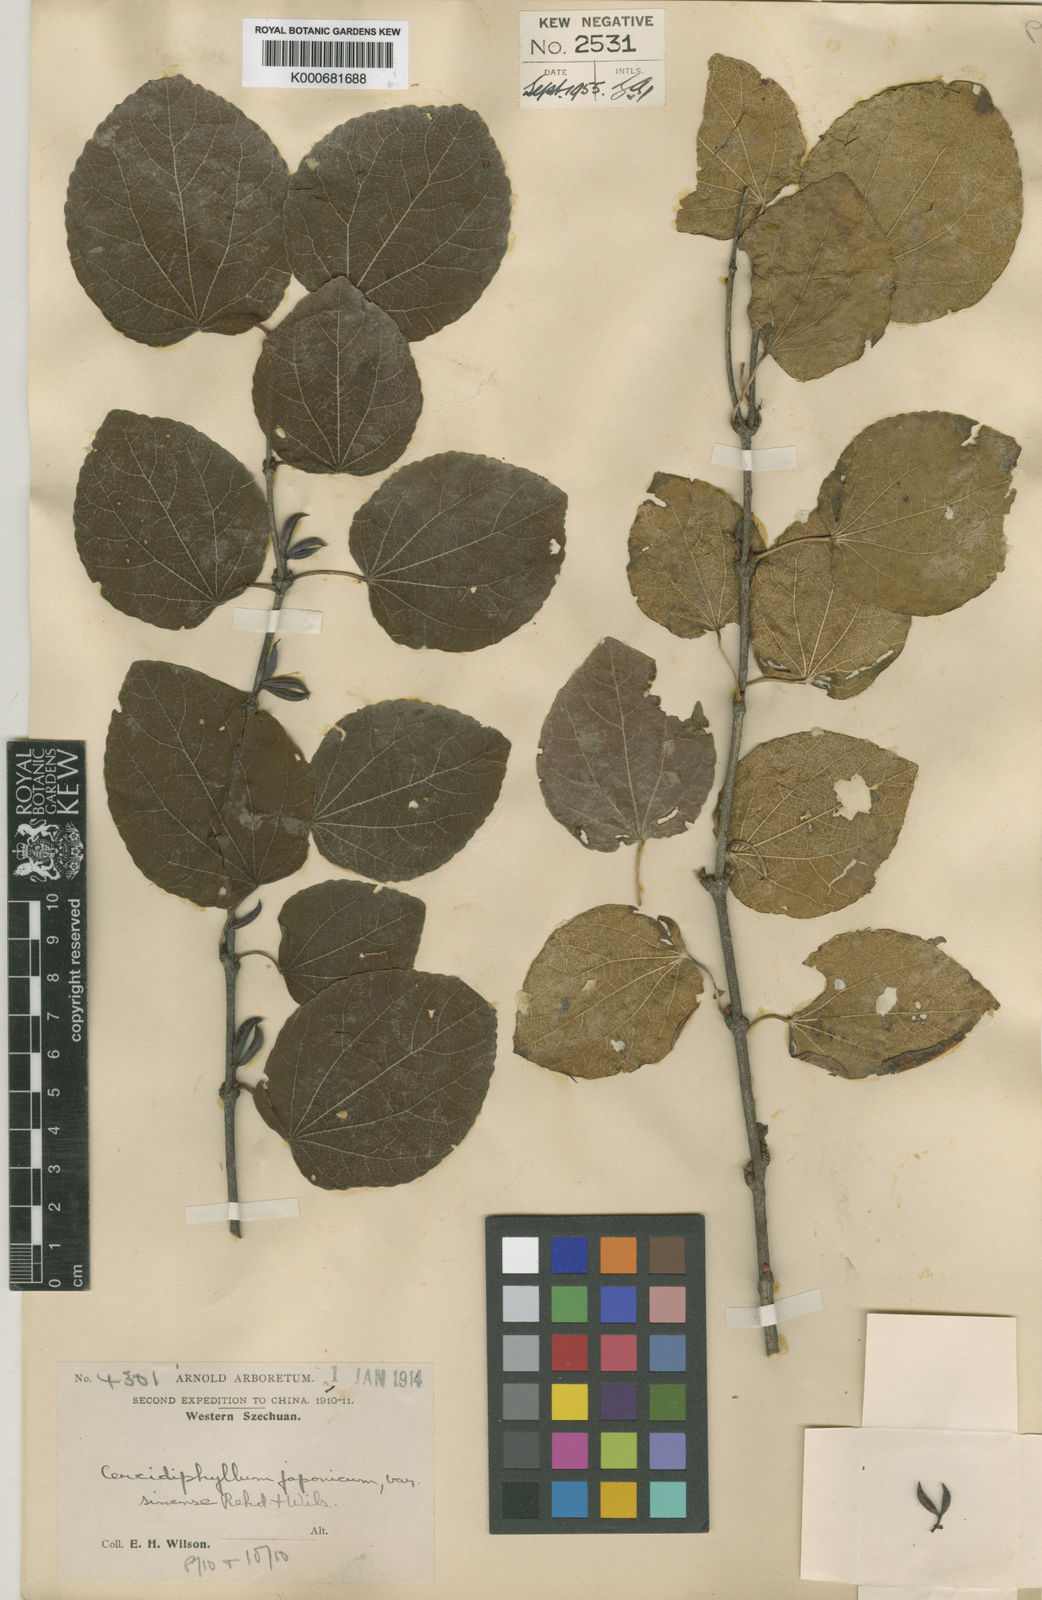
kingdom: Plantae
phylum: Tracheophyta
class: Magnoliopsida
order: Saxifragales
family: Cercidiphyllaceae
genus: Cercidiphyllum
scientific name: Cercidiphyllum japonicum
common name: Katsura tree
